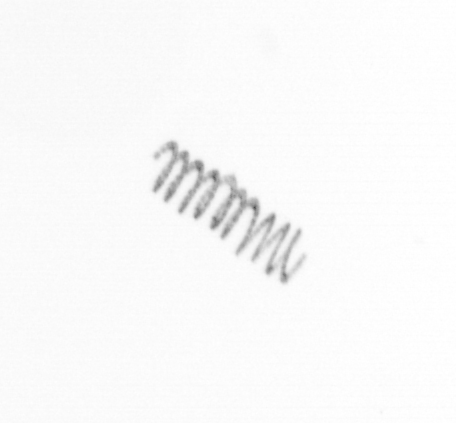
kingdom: Chromista
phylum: Ochrophyta
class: Bacillariophyceae
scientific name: Bacillariophyceae
